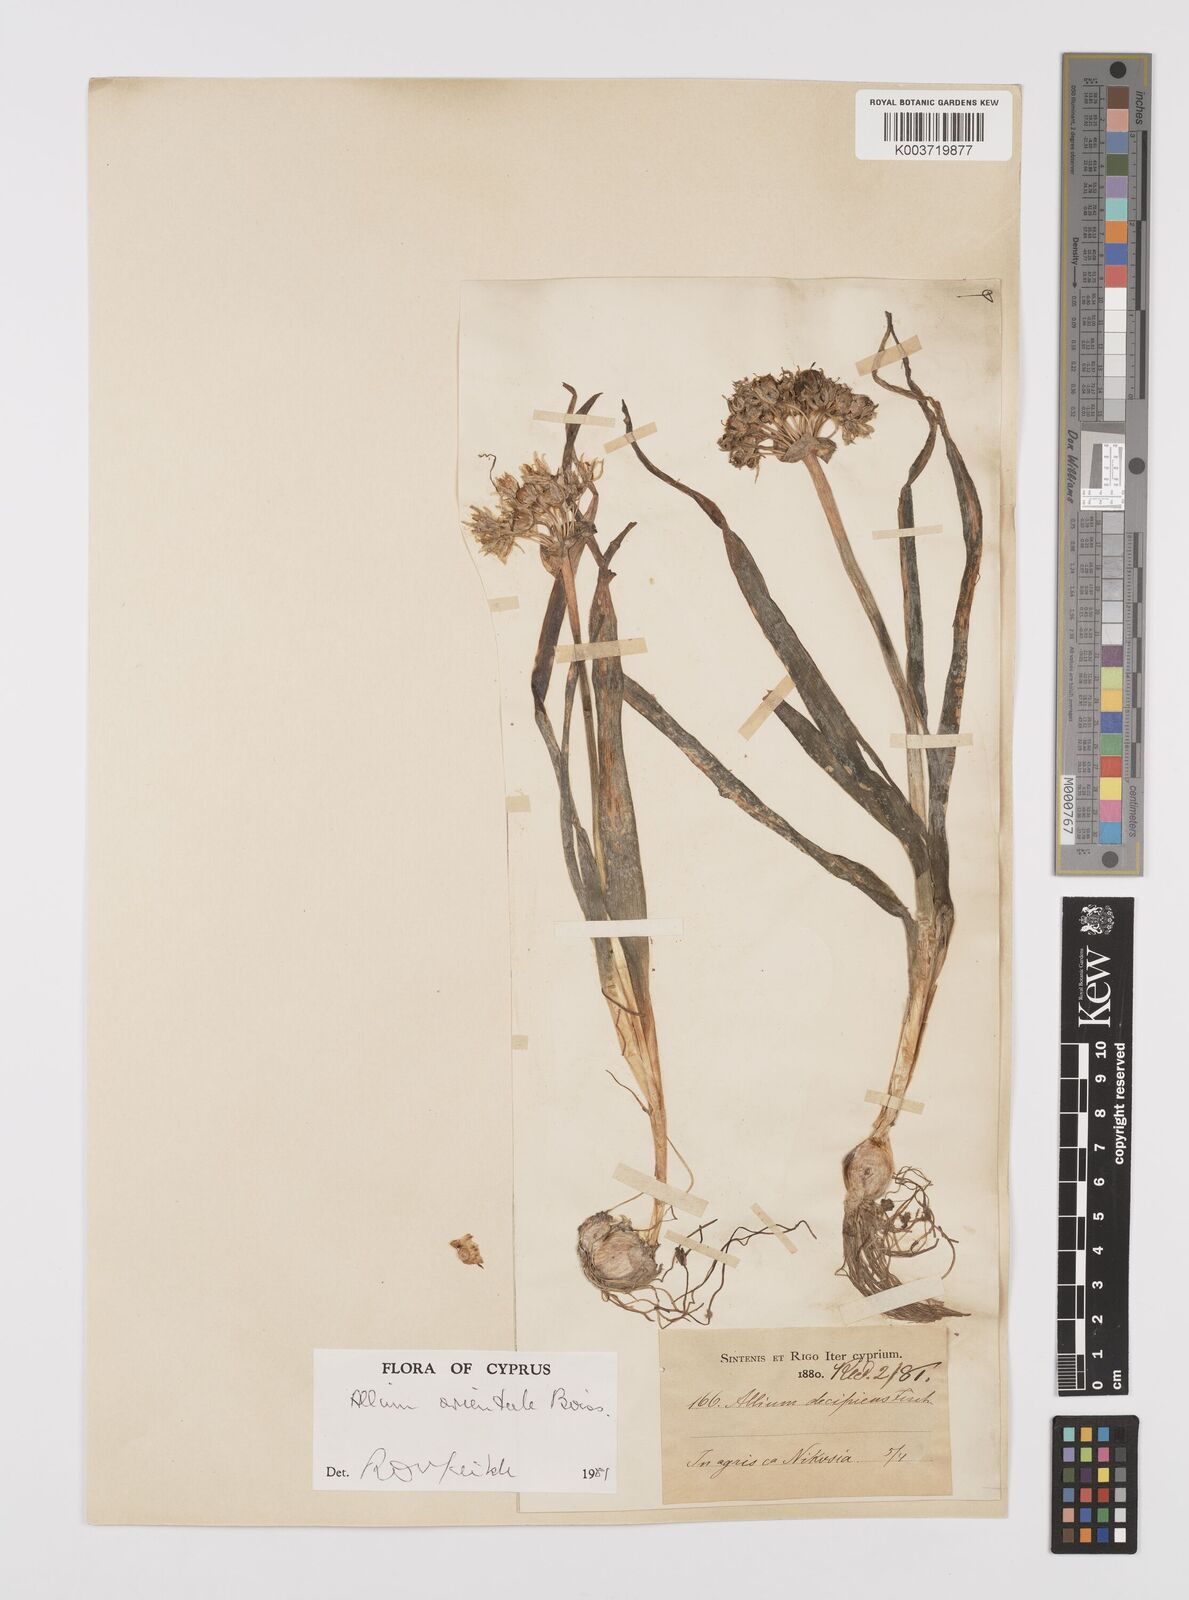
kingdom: Plantae
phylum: Tracheophyta
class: Liliopsida
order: Asparagales
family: Amaryllidaceae
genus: Allium
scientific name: Allium orientale
